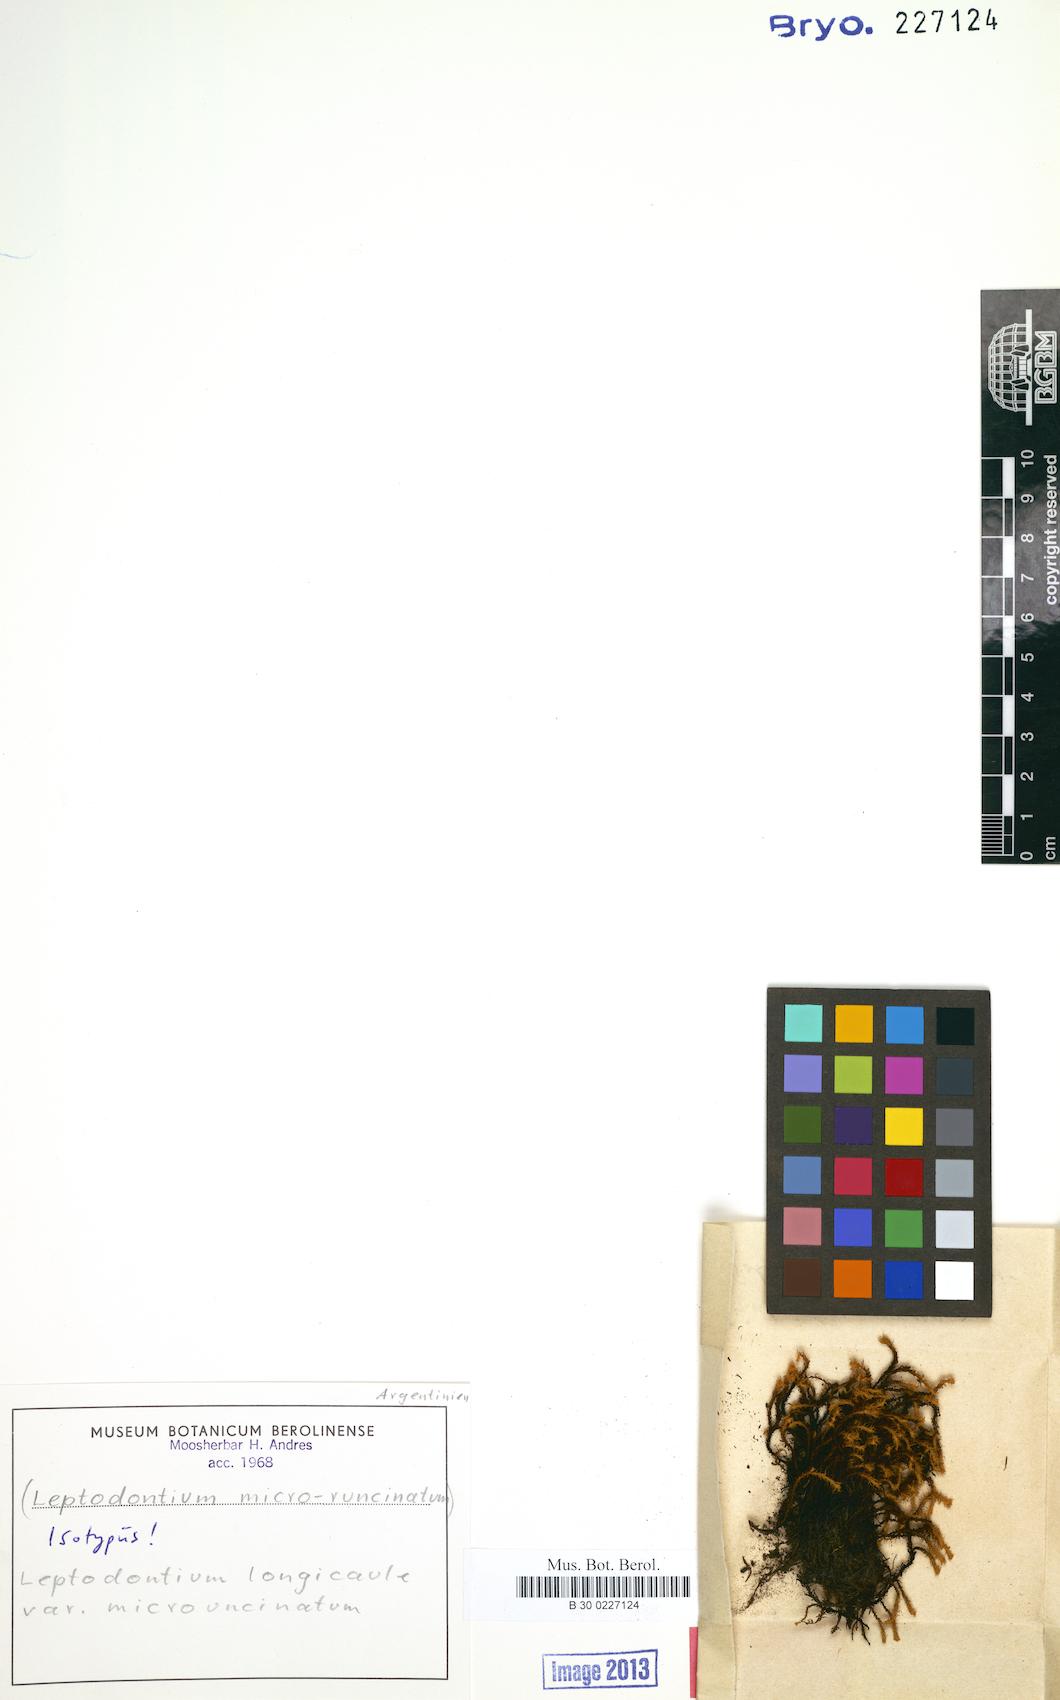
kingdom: Plantae
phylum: Bryophyta
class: Bryopsida
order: Pottiales
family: Pottiaceae
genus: Leptodontium
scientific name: Leptodontium longicaule
